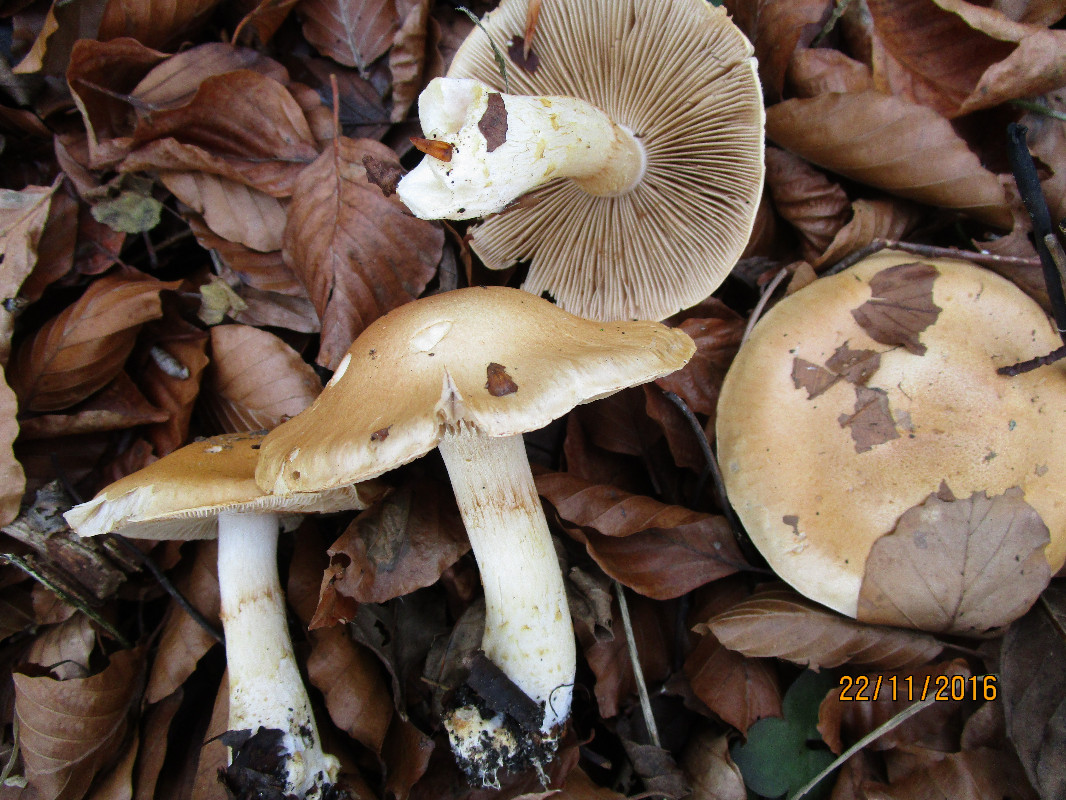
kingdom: Fungi
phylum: Basidiomycota
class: Agaricomycetes
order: Agaricales
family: Cortinariaceae
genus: Phlegmacium
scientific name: Phlegmacium cliduchus
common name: majs-slørhat
